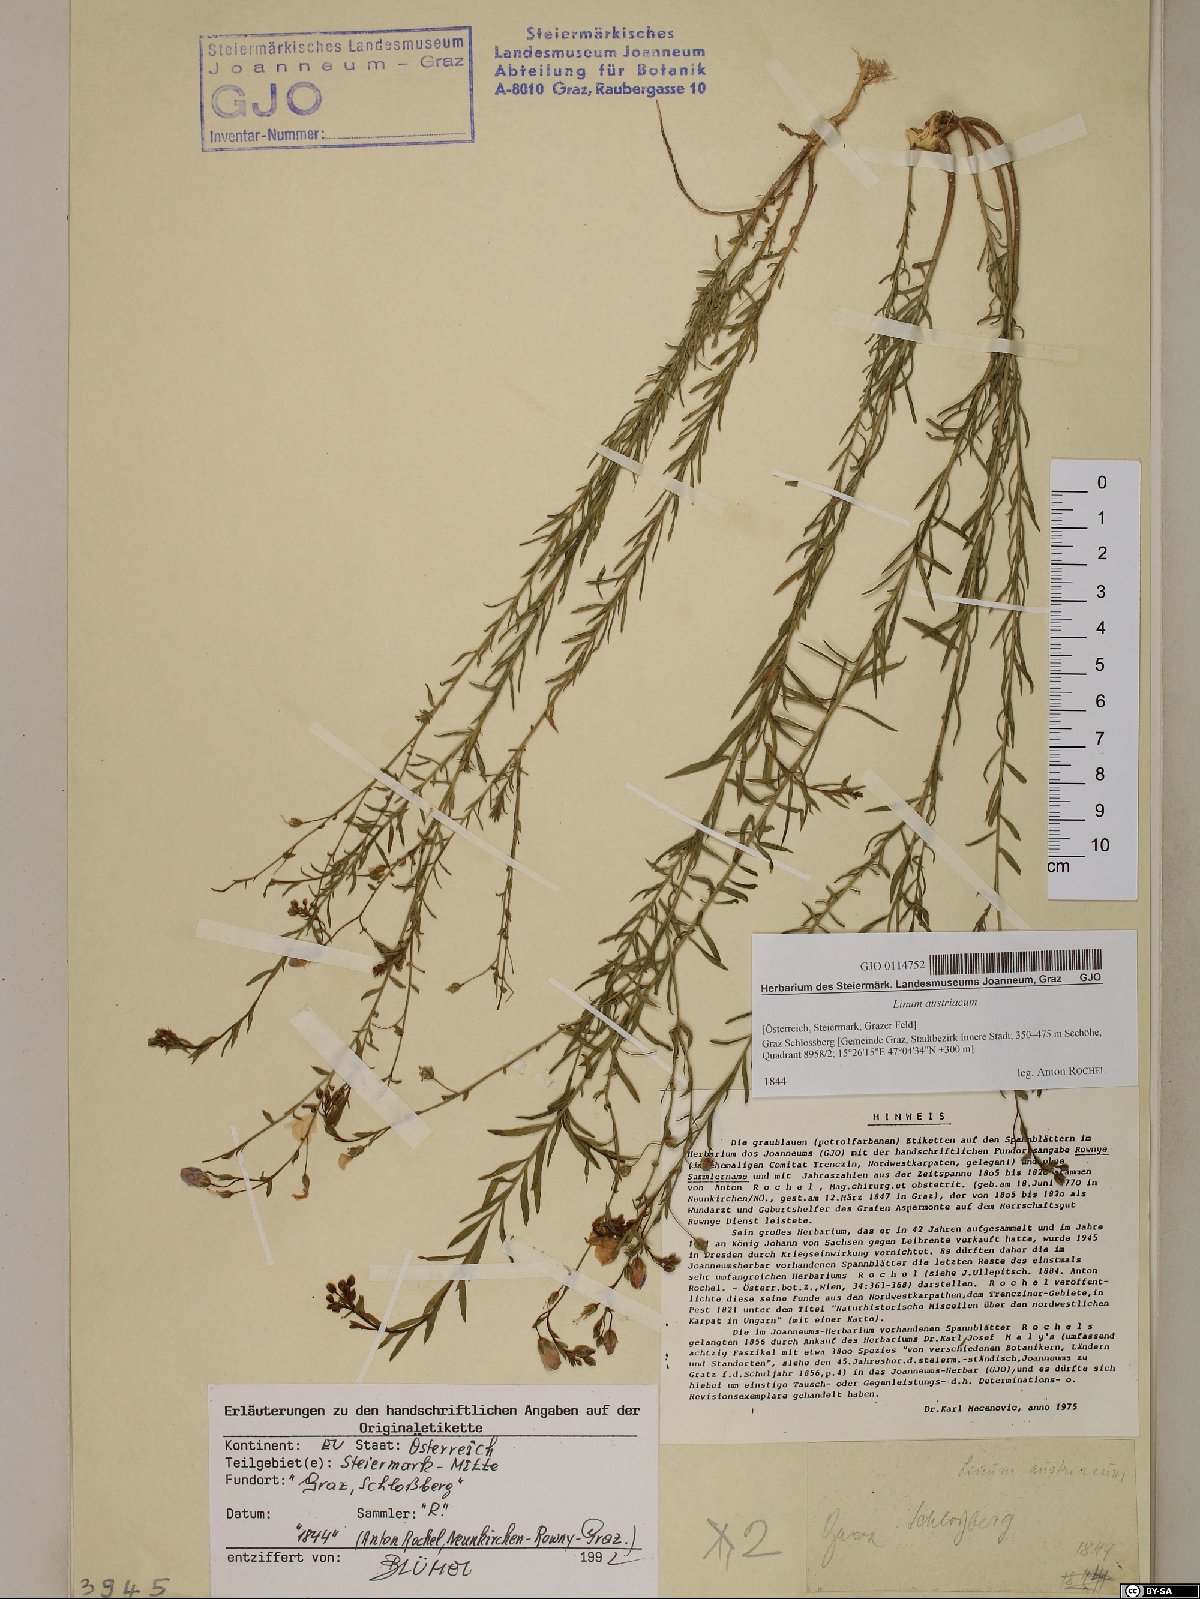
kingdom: Plantae
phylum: Tracheophyta
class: Magnoliopsida
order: Malpighiales
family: Linaceae
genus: Linum
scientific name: Linum austriacum
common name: Austrian flax
